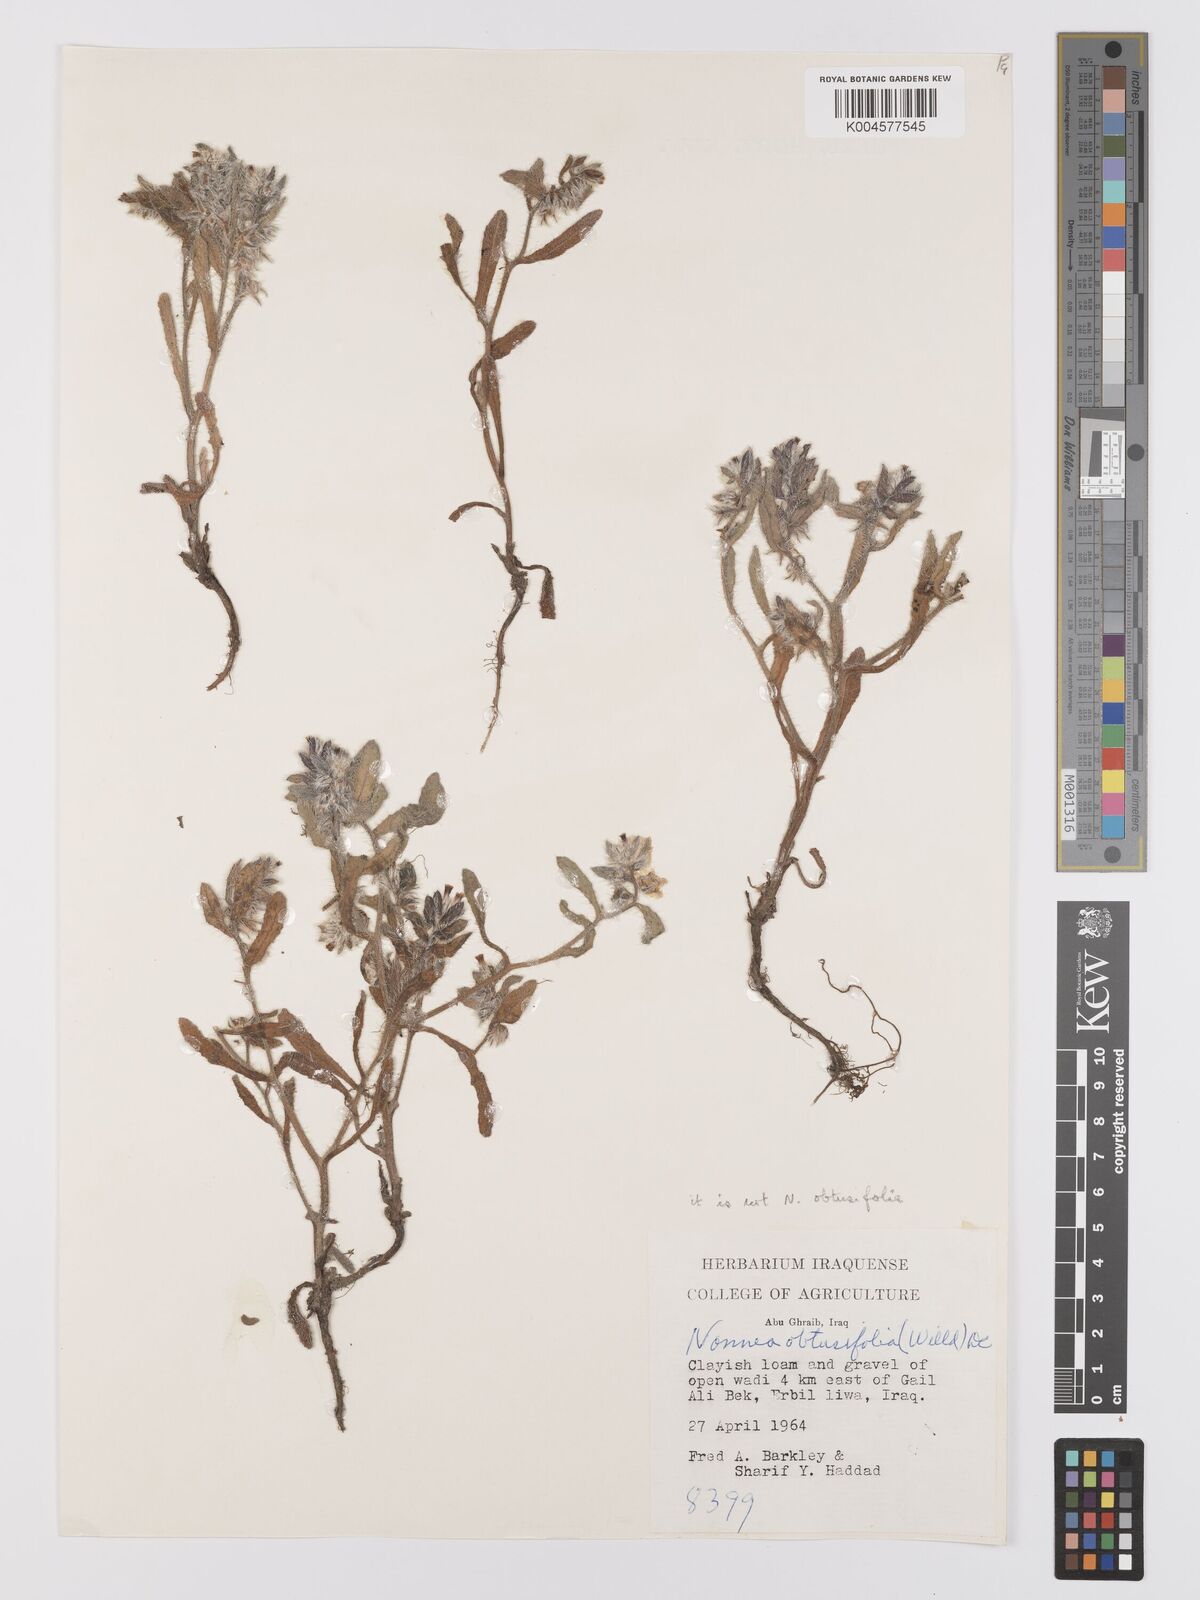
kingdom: Plantae
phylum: Tracheophyta
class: Magnoliopsida
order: Boraginales
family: Boraginaceae
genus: Anchusa
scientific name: Anchusa milleri
